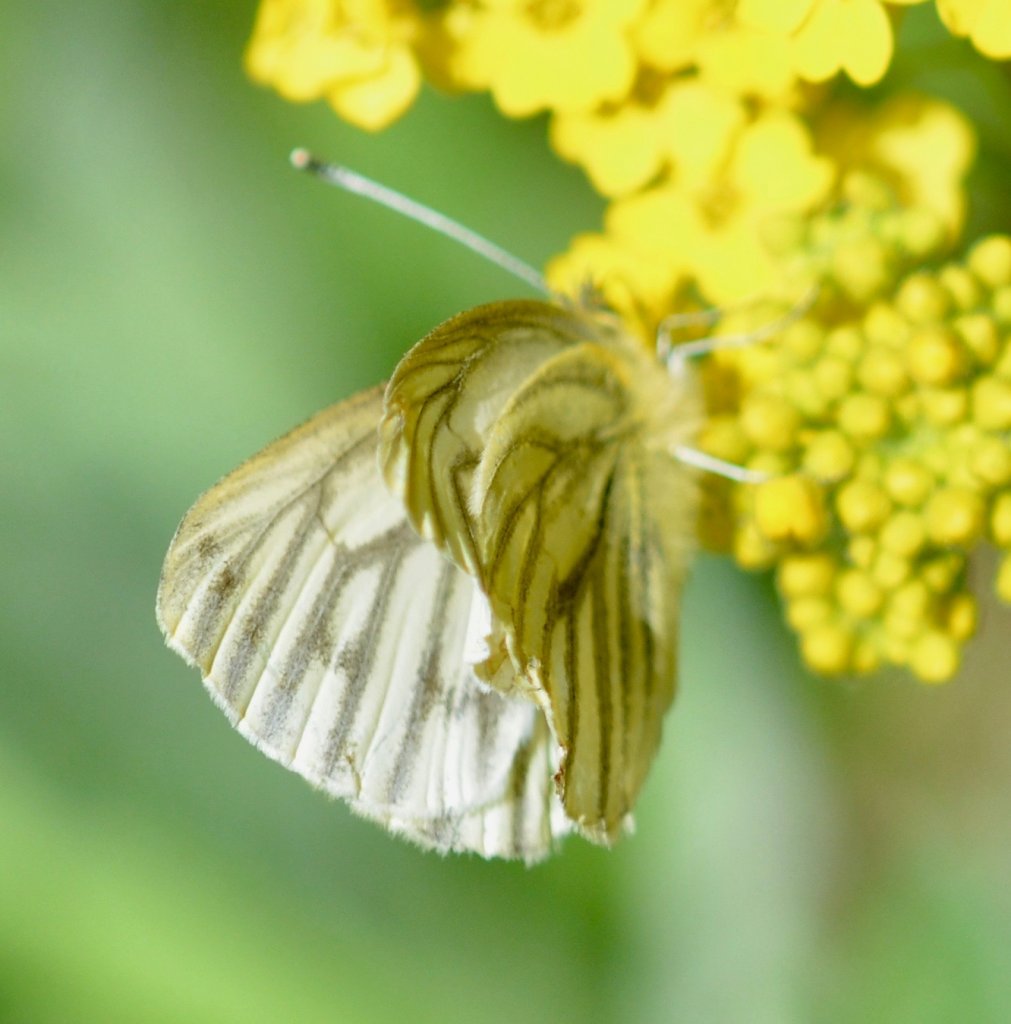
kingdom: Animalia
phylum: Arthropoda
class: Insecta
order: Lepidoptera
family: Pieridae
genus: Pieris
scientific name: Pieris angelika
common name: Arctic White
